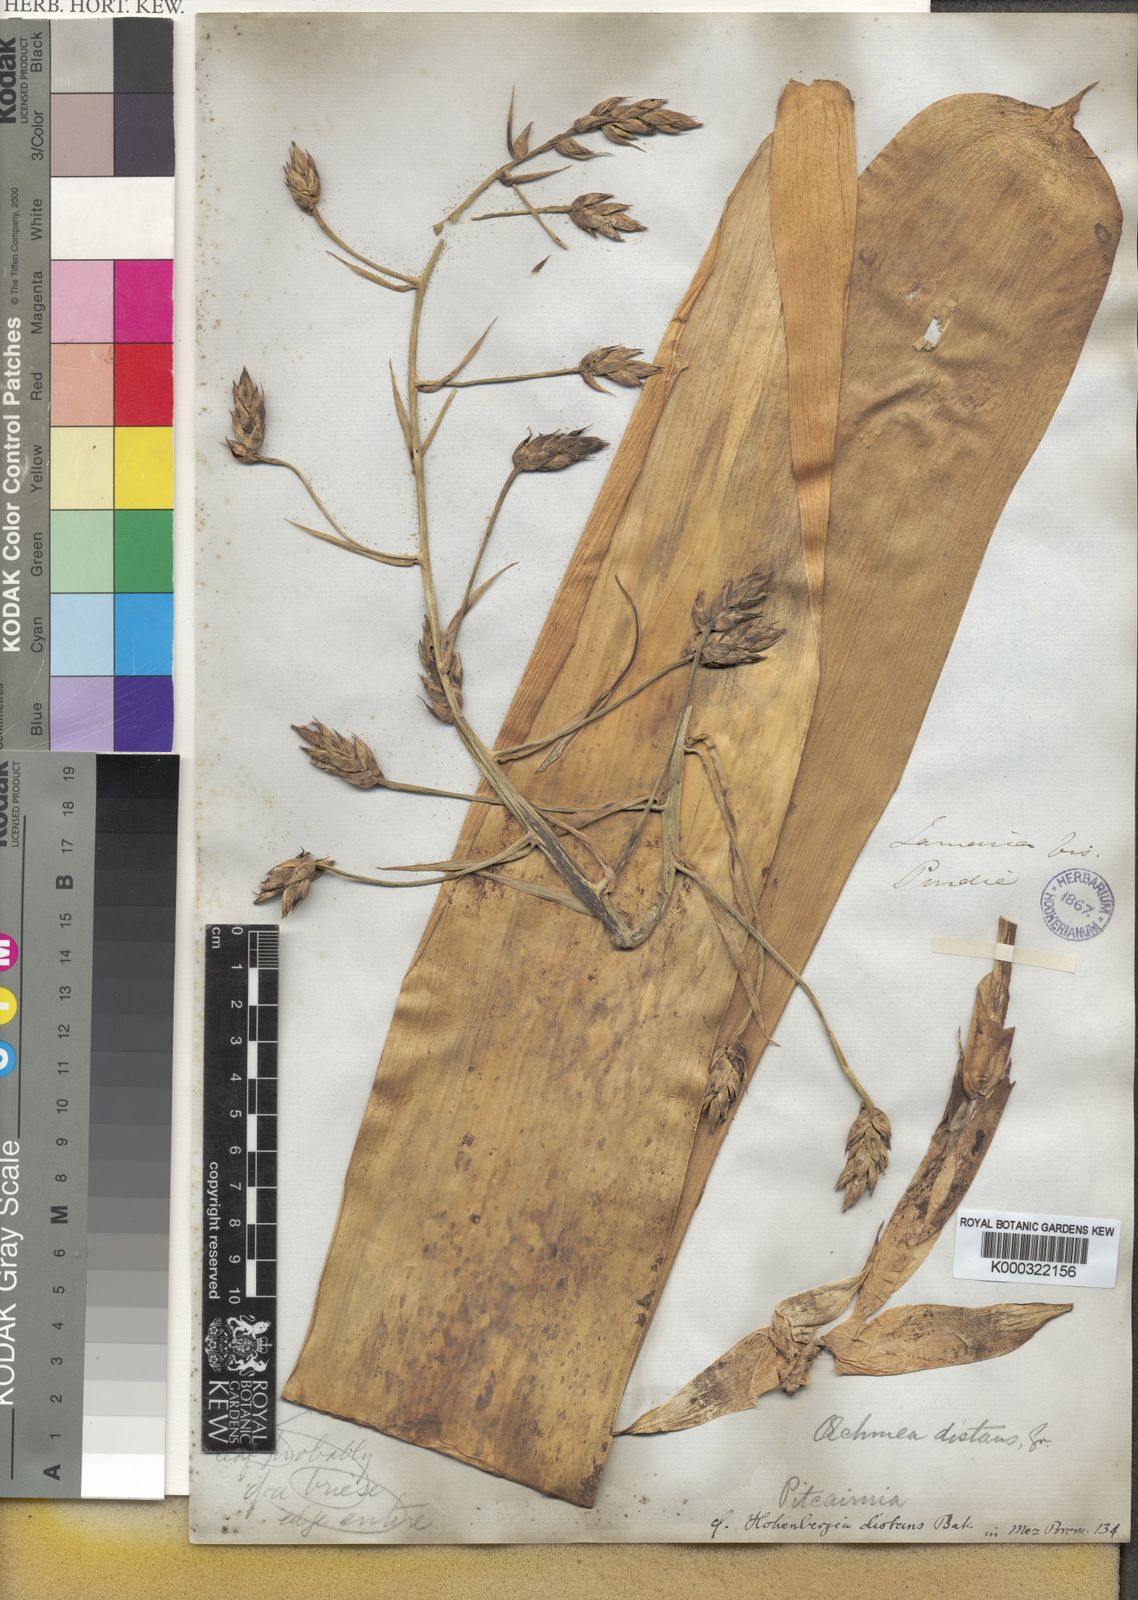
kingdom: Plantae
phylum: Tracheophyta
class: Liliopsida
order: Poales
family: Bromeliaceae
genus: Wittmackia
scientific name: Wittmackia distans
